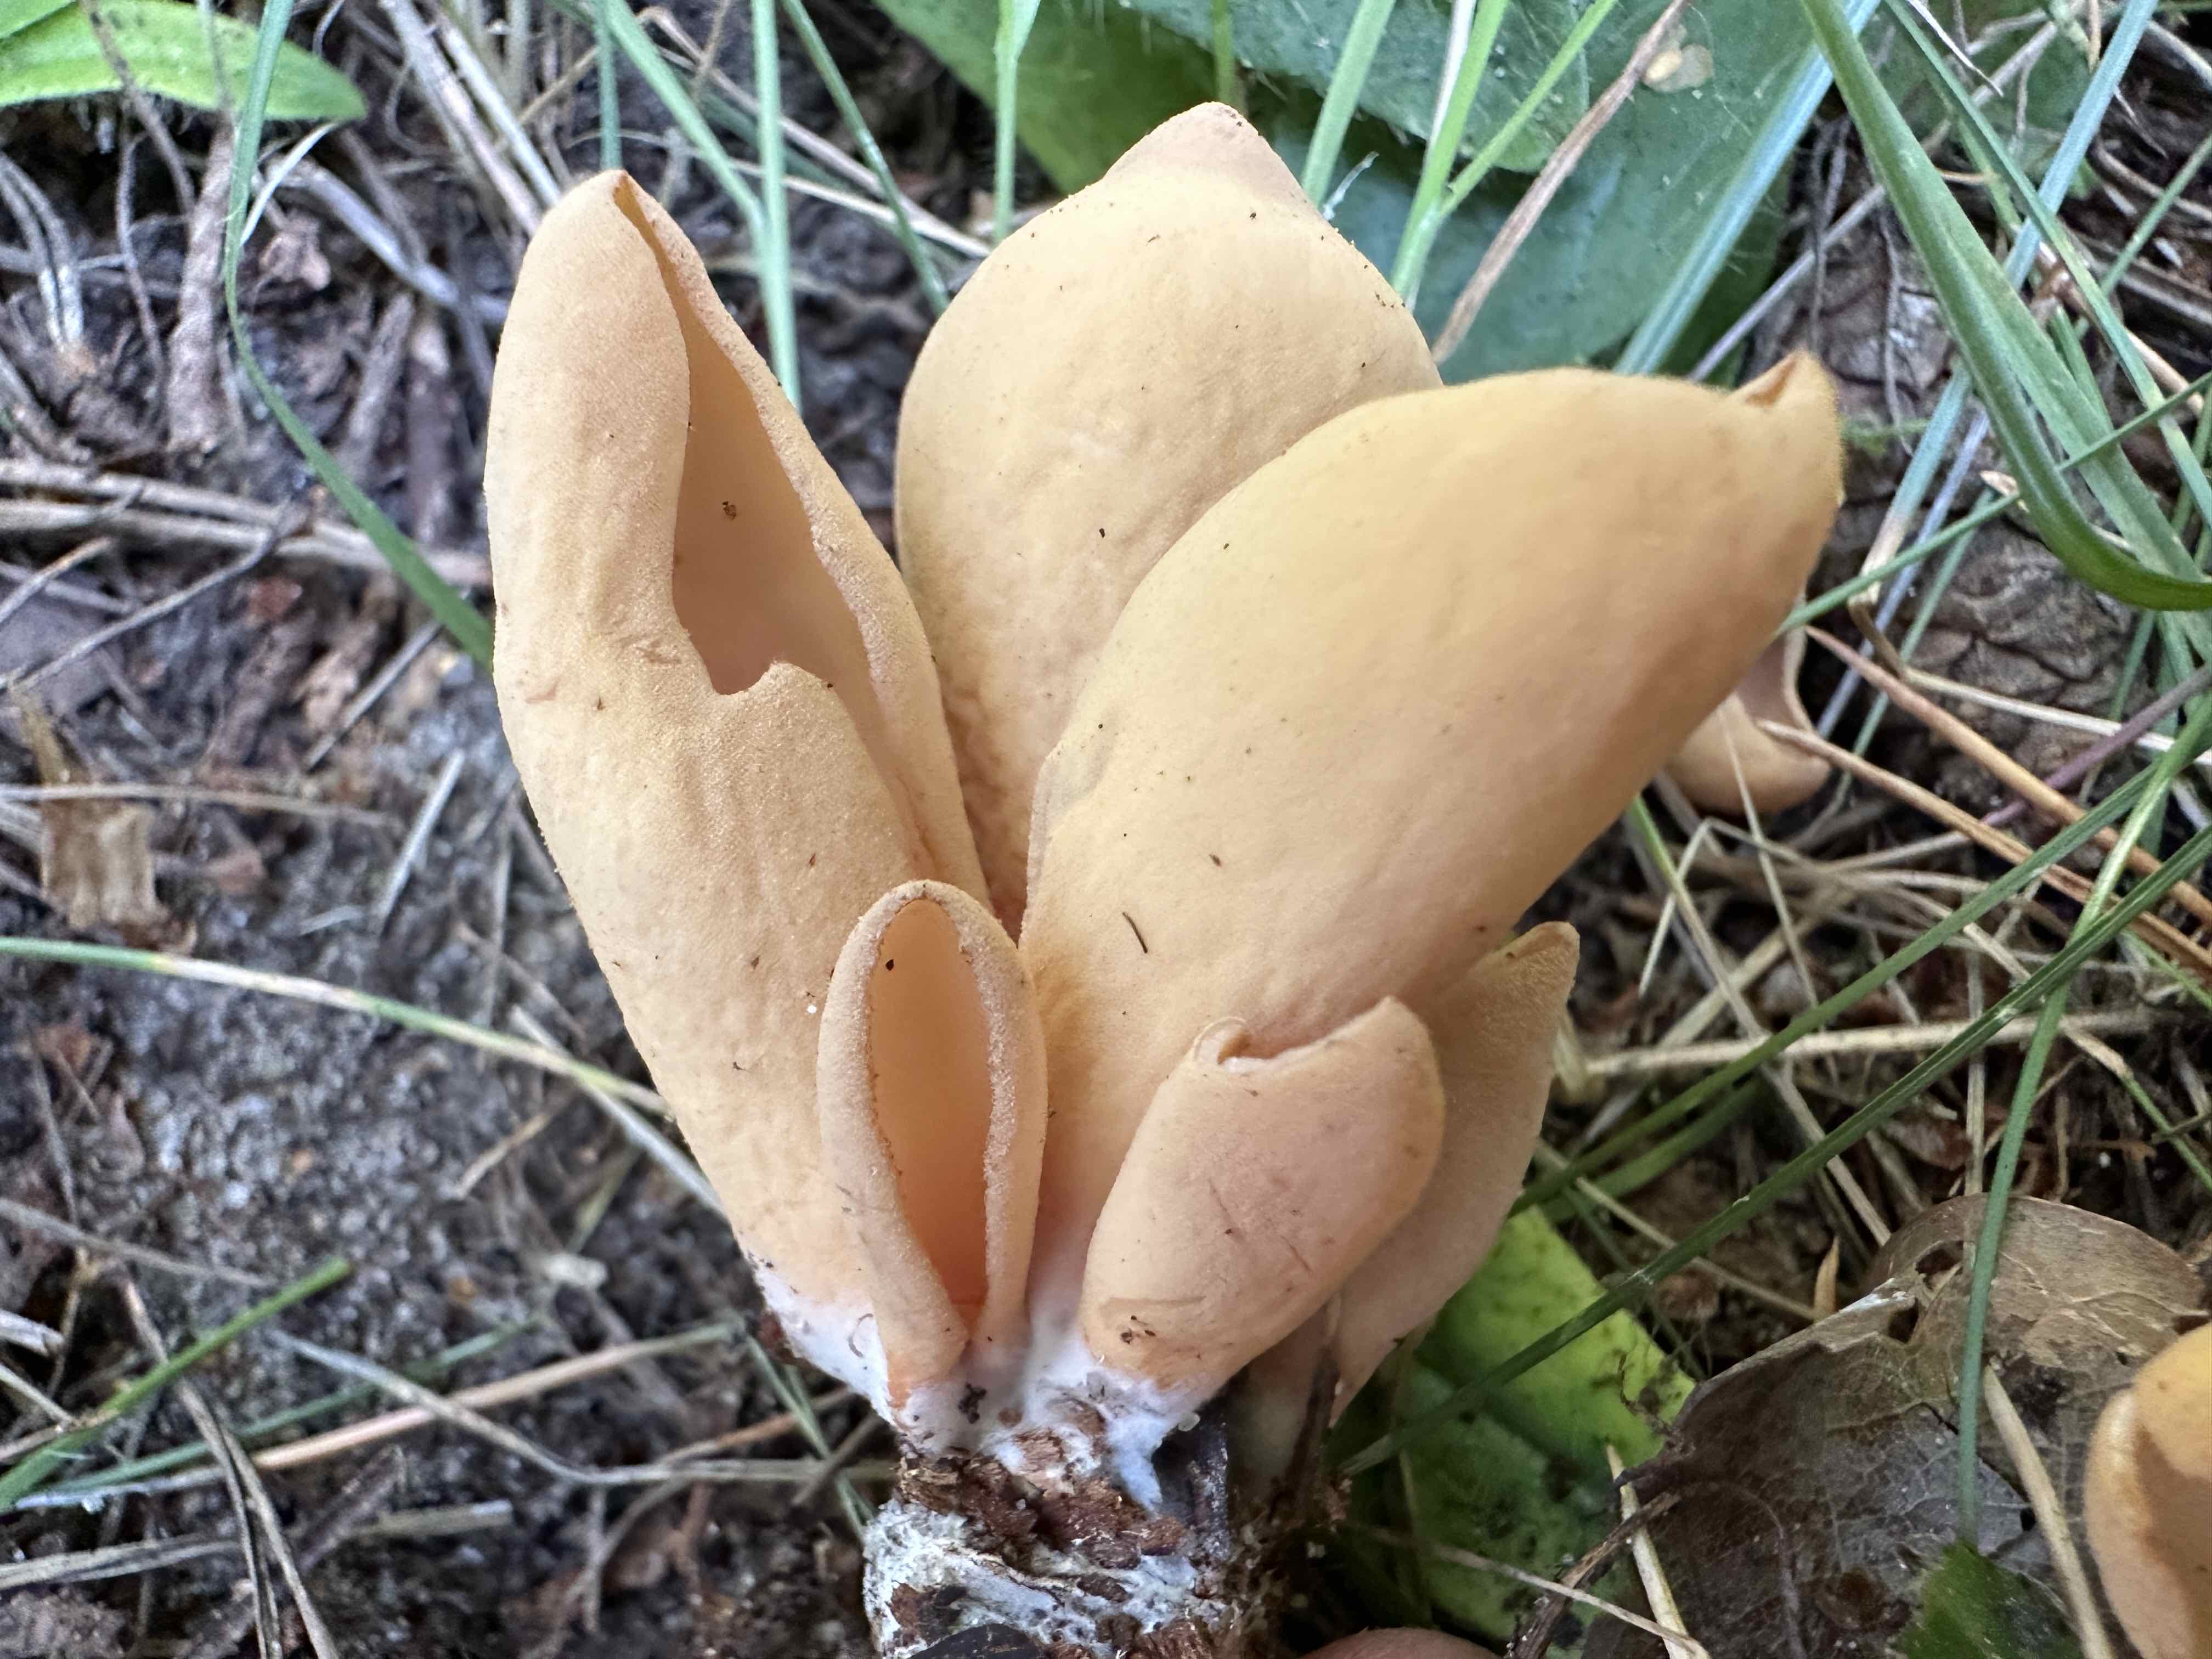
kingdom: Fungi
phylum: Ascomycota
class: Pezizomycetes
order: Pezizales
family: Otideaceae
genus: Otidea
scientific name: Otidea onotica
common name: æsel-ørebæger
